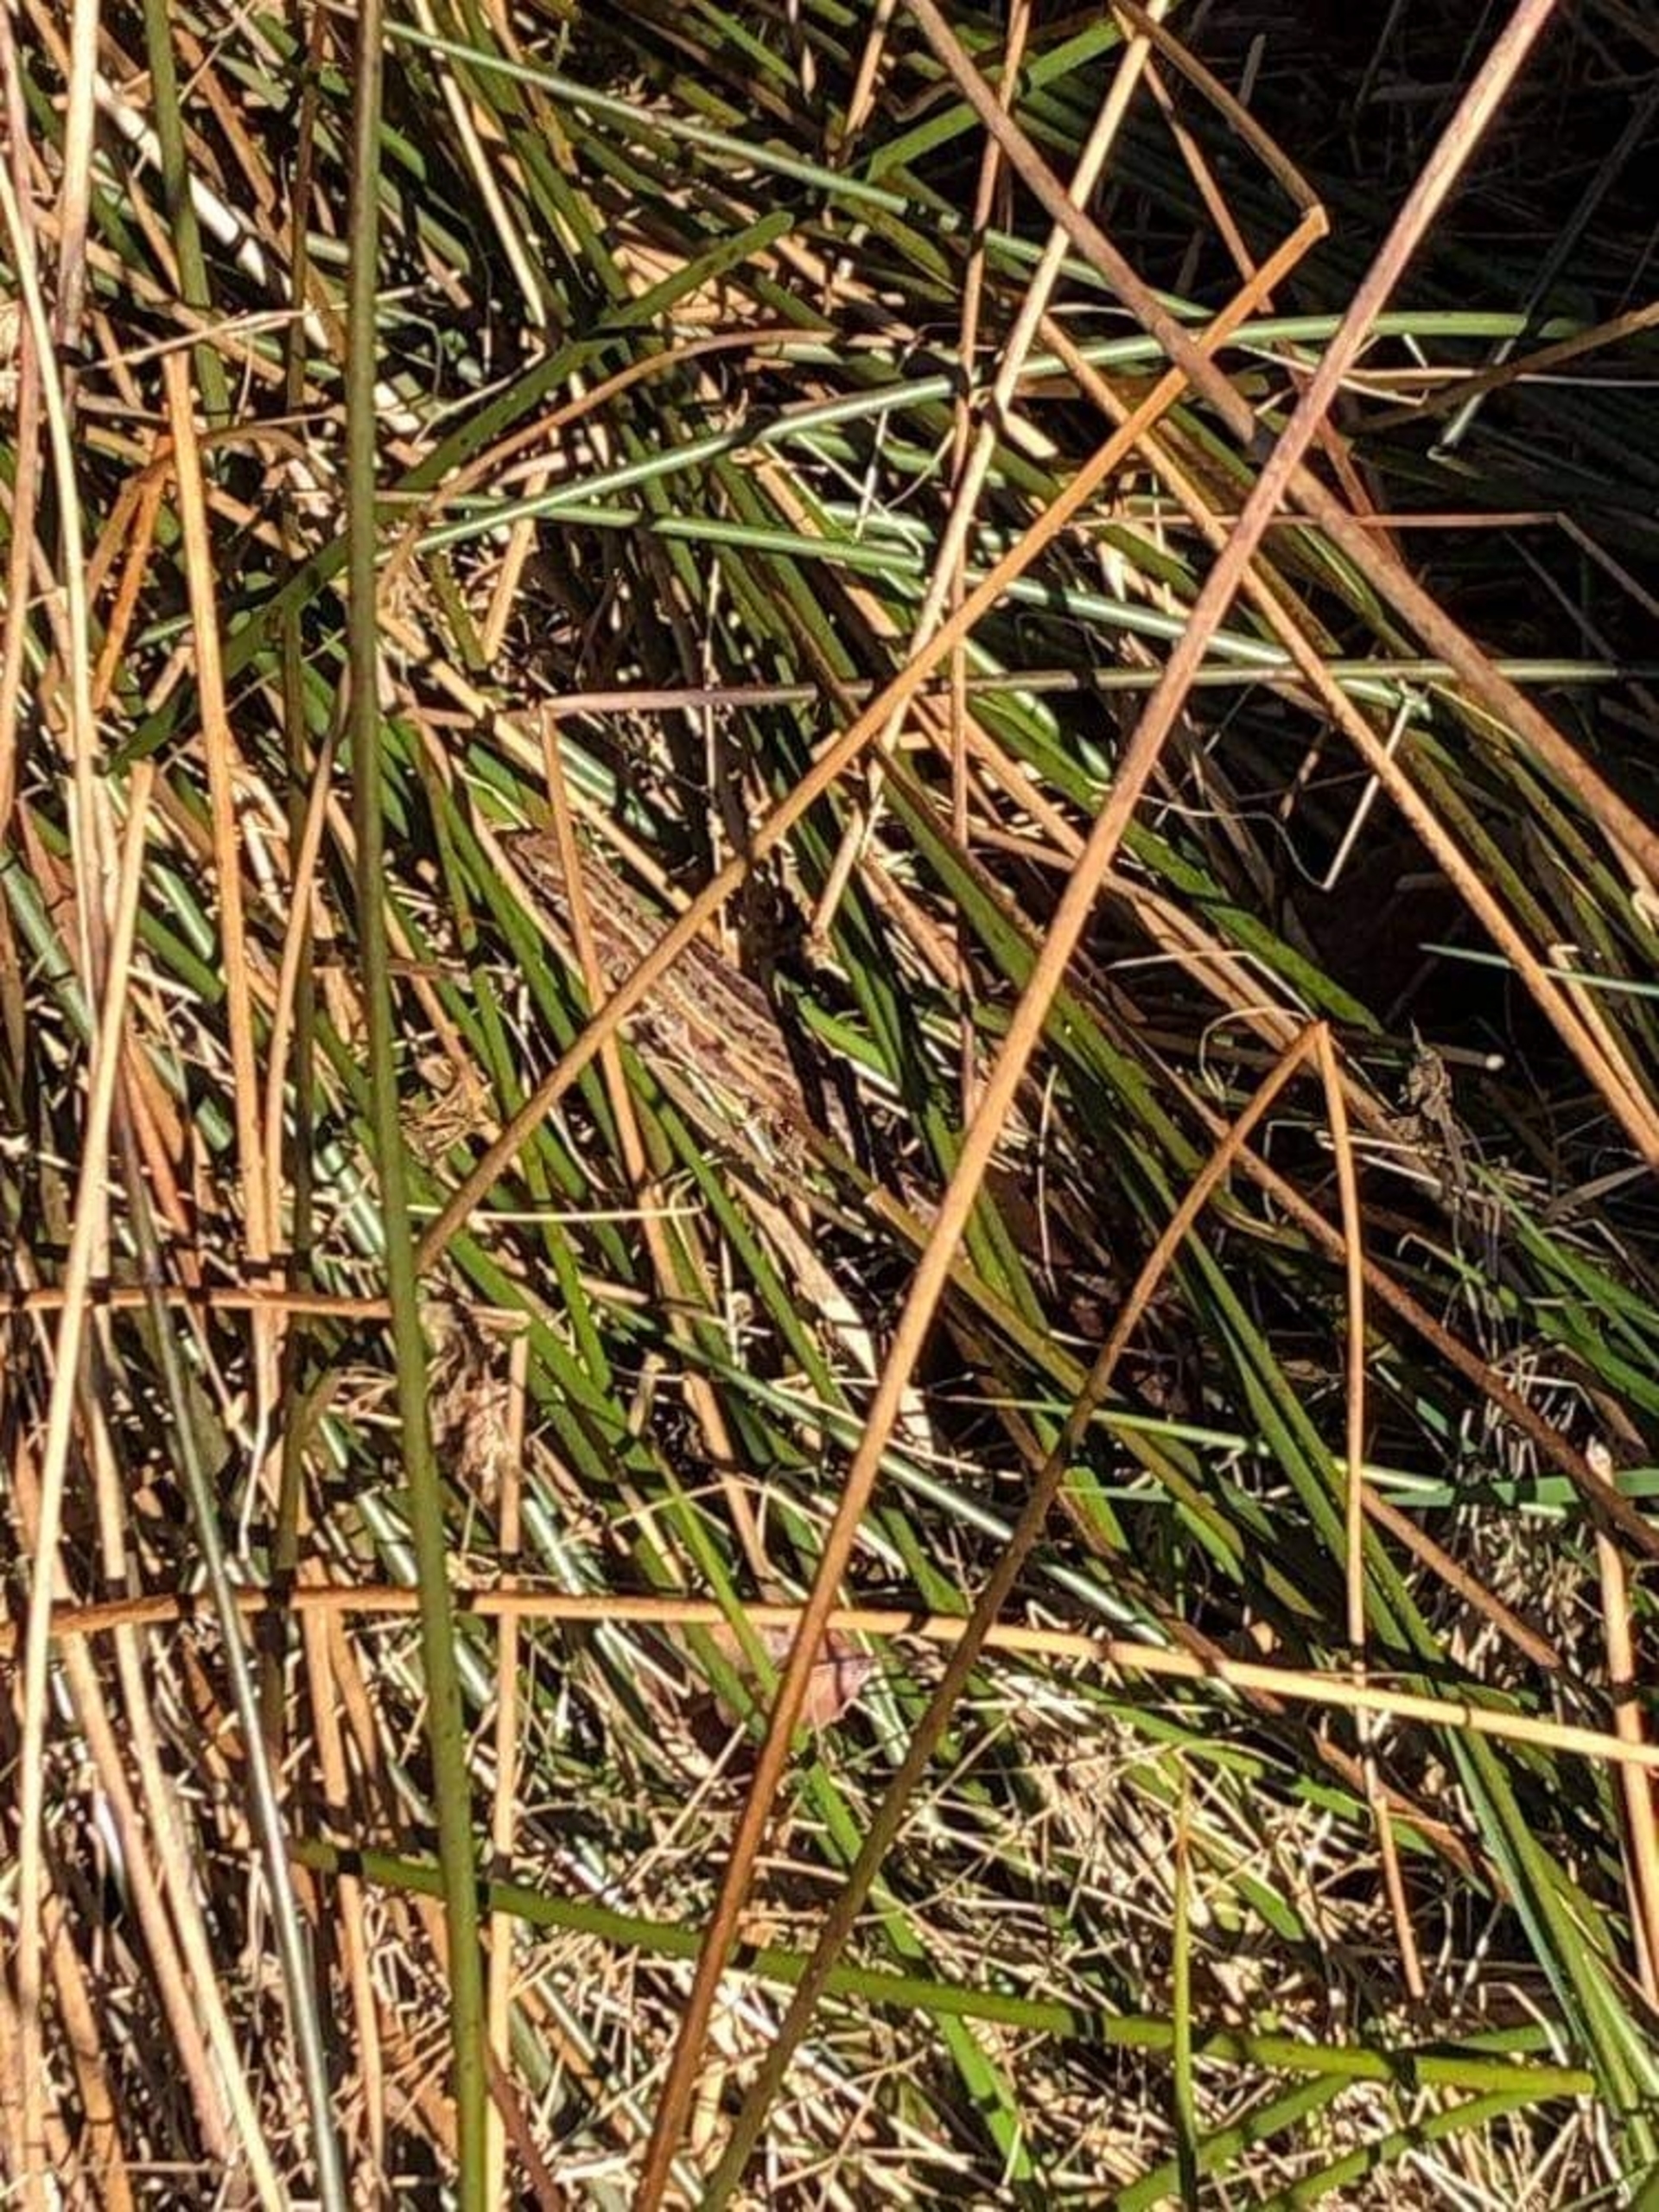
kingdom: Animalia
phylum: Chordata
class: Squamata
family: Lacertidae
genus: Zootoca
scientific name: Zootoca vivipara
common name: Skovfirben
